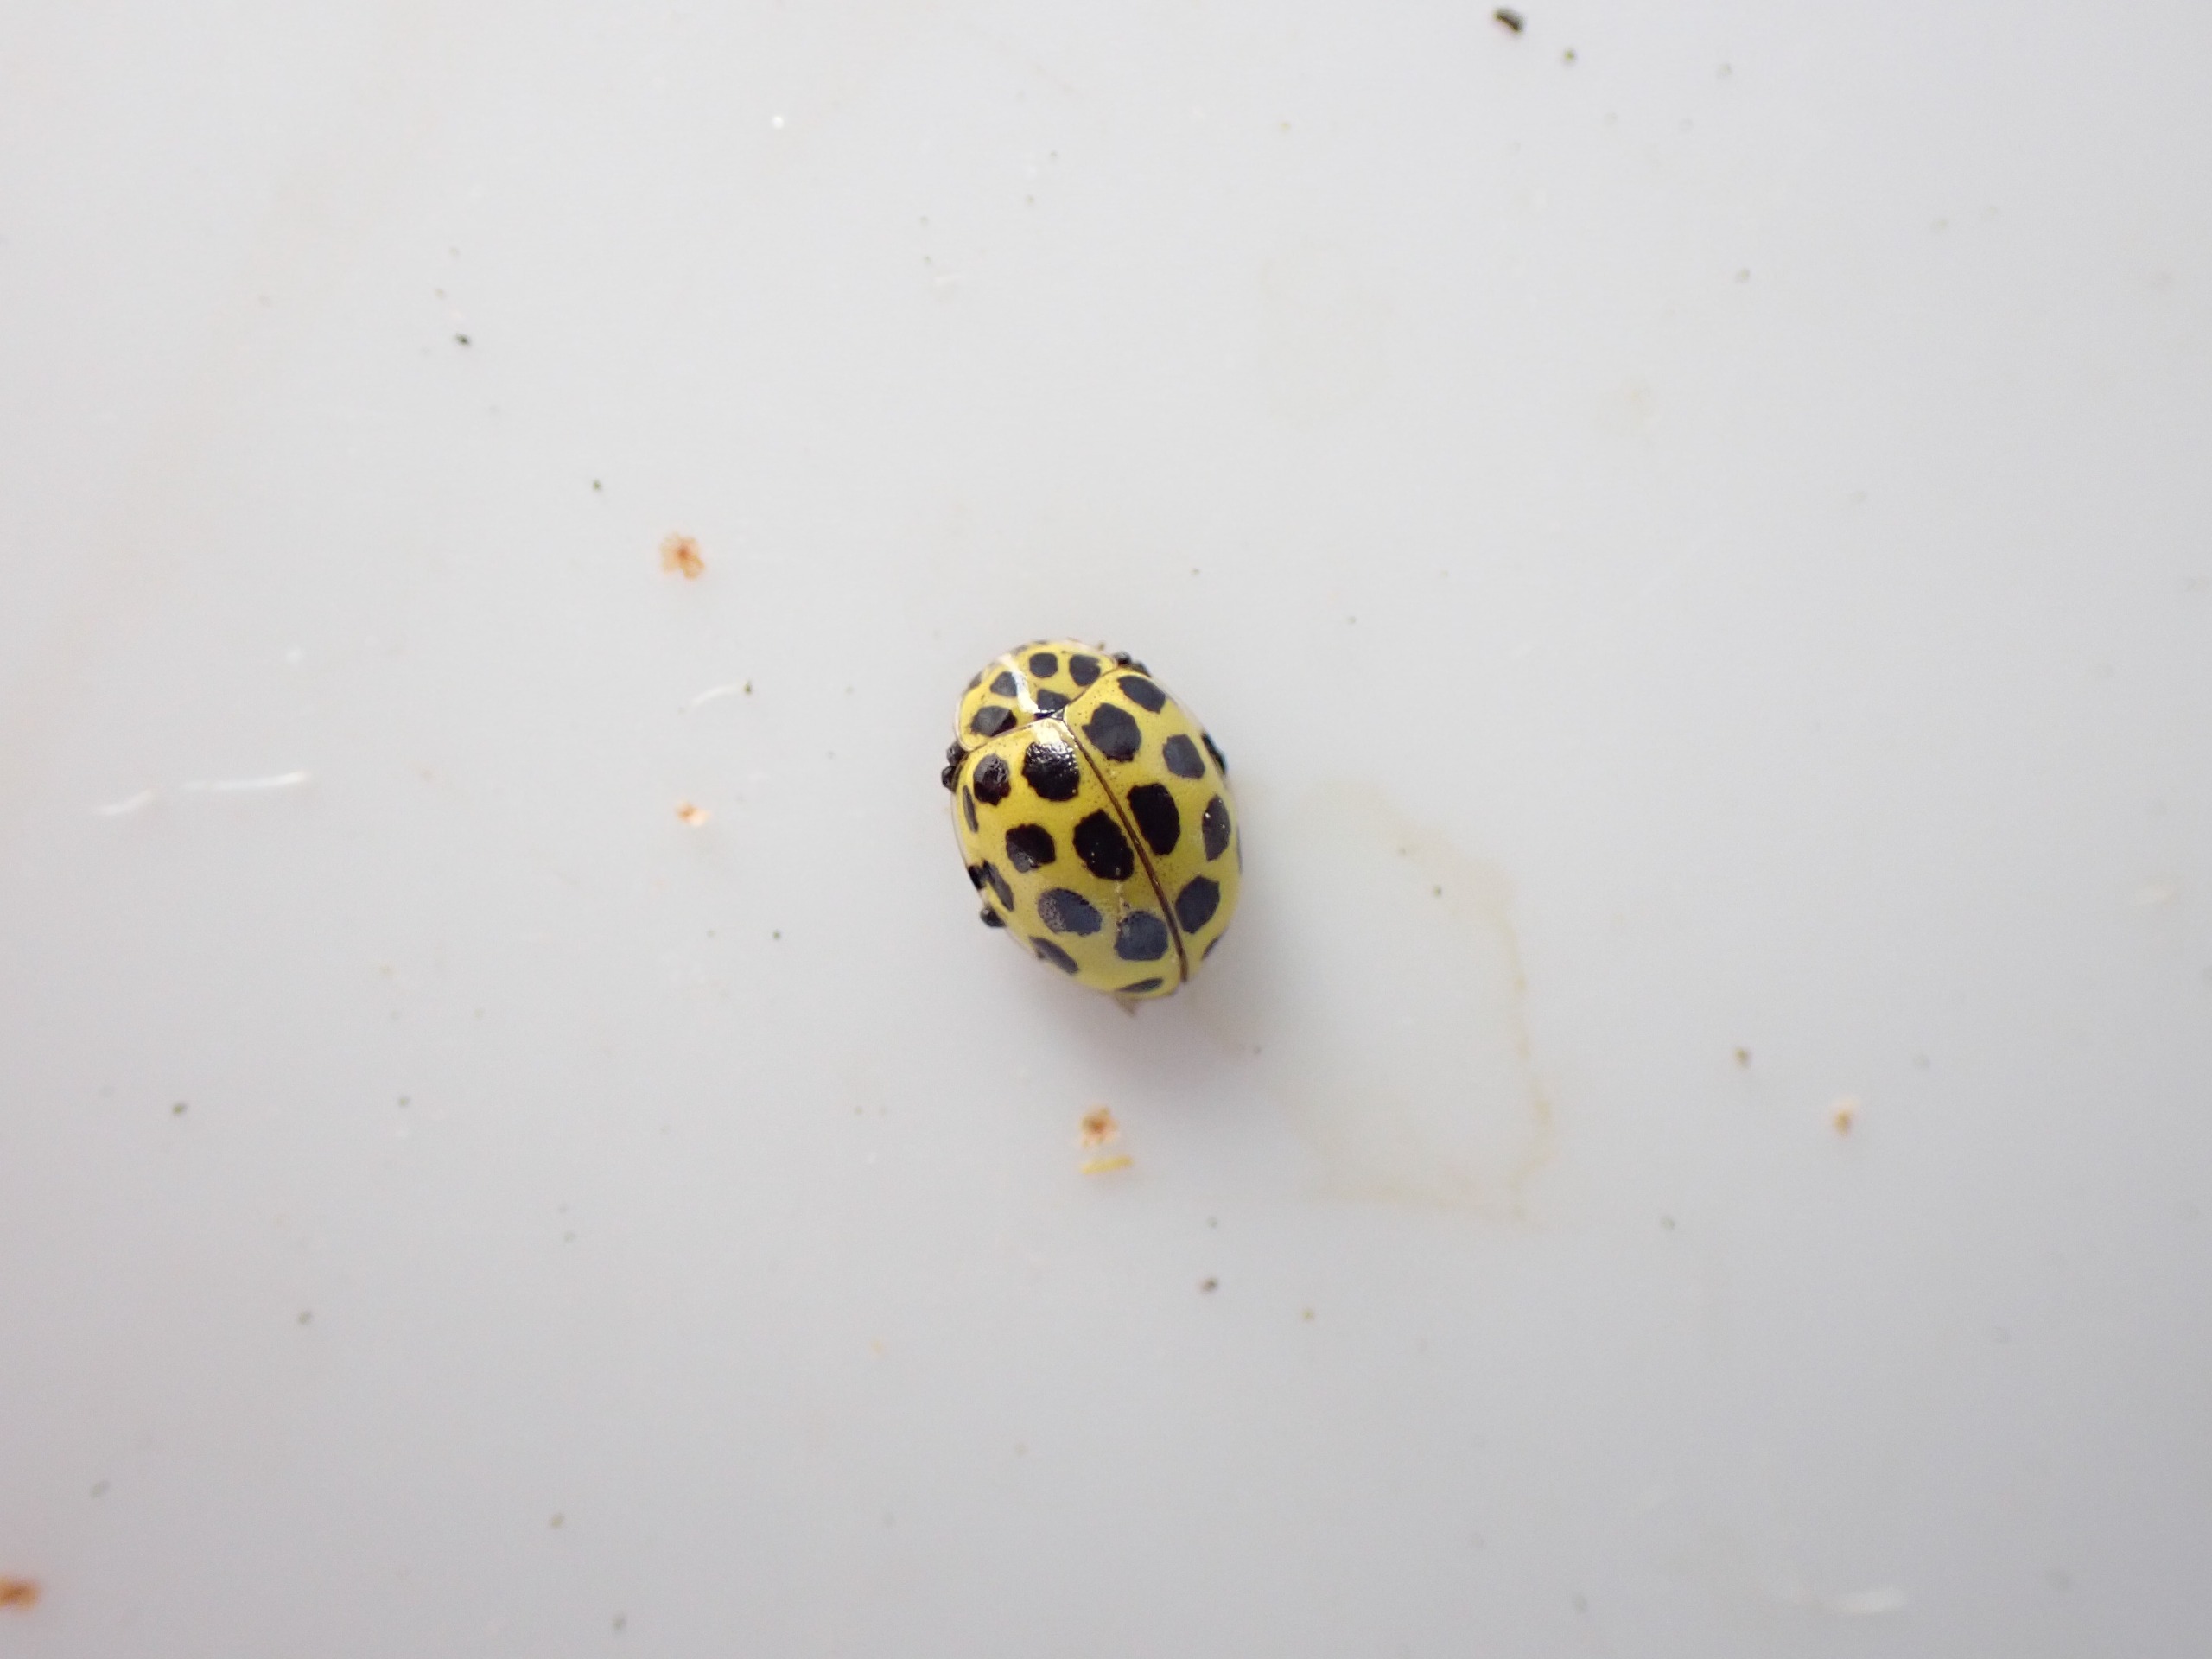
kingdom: Animalia
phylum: Arthropoda
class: Insecta
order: Coleoptera
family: Coccinellidae
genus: Psyllobora
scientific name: Psyllobora vigintiduopunctata
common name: Toogtyveplettet mariehøne
